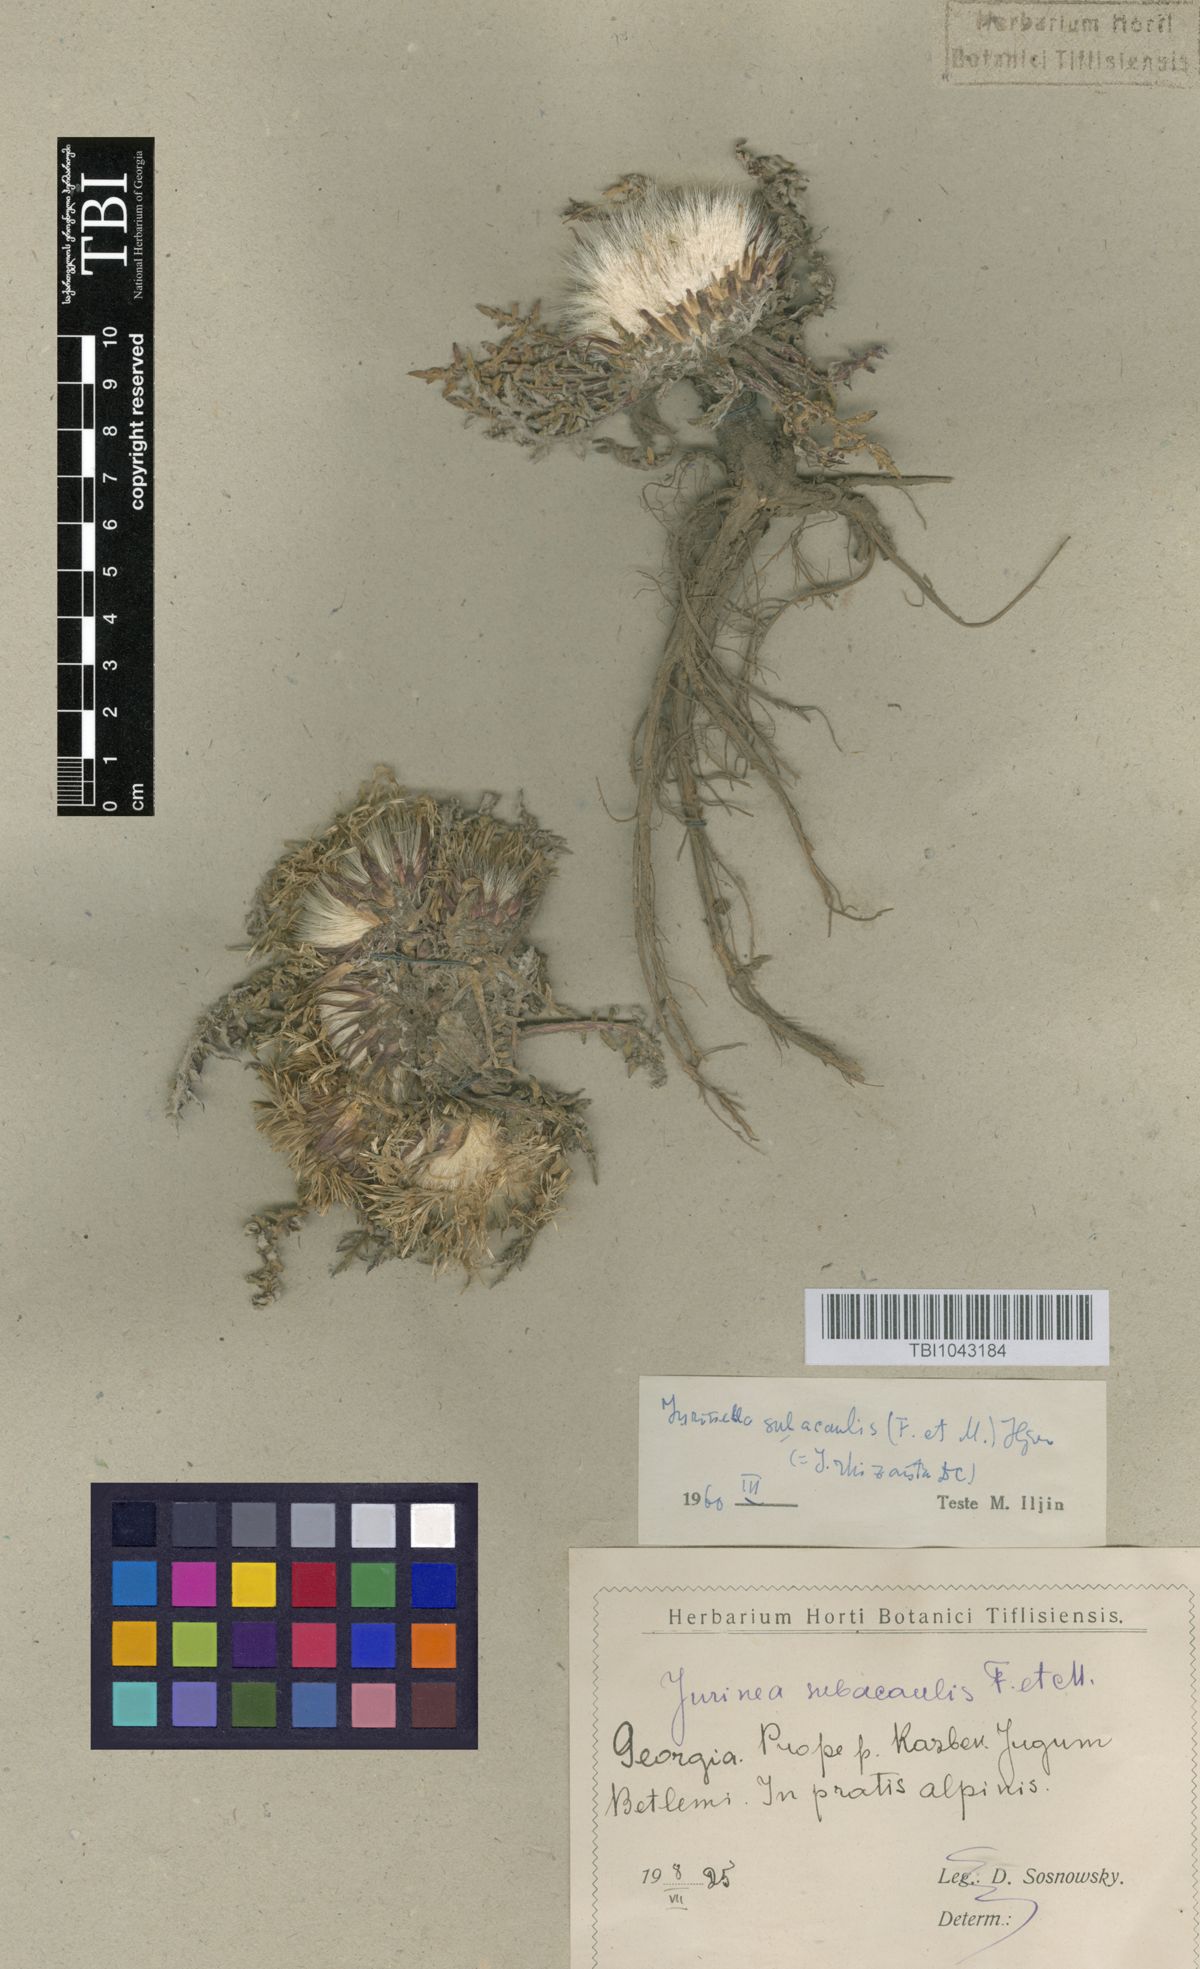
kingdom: Plantae
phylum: Tracheophyta
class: Magnoliopsida
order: Asterales
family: Asteraceae
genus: Jurinea
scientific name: Jurinea moschus
